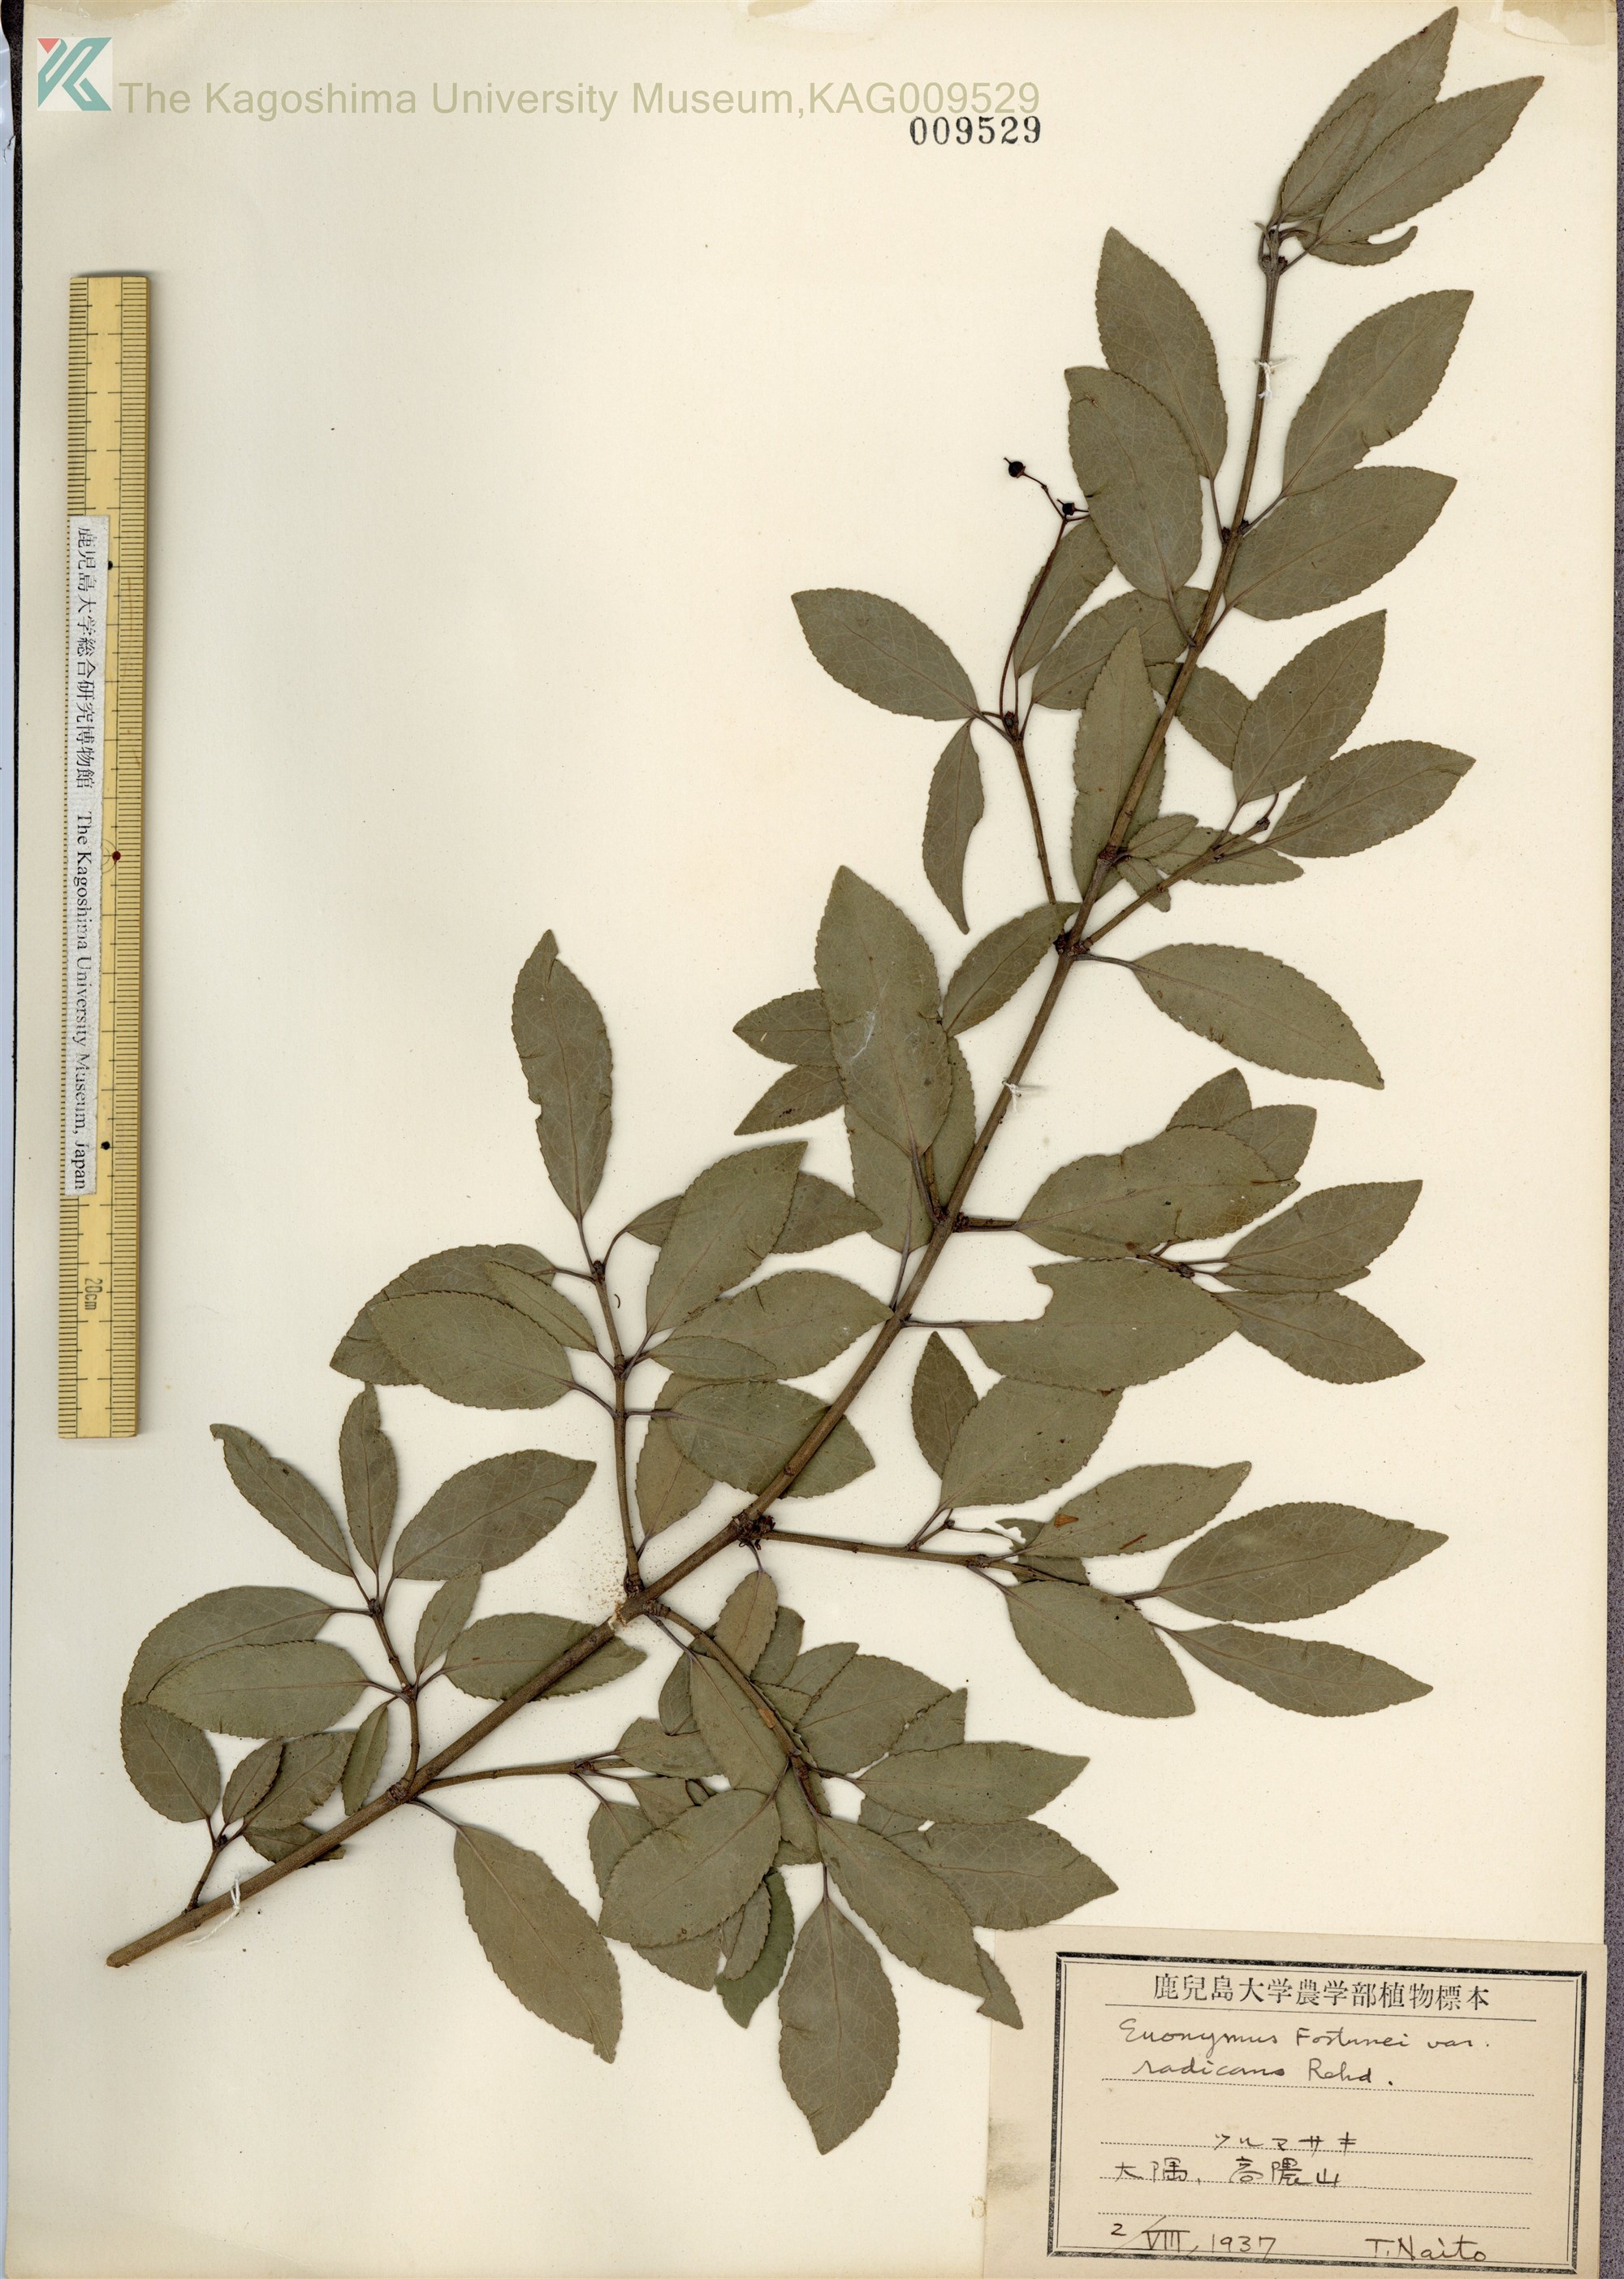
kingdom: Plantae
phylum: Tracheophyta
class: Magnoliopsida
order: Celastrales
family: Celastraceae
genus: Euonymus
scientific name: Euonymus fortunei
